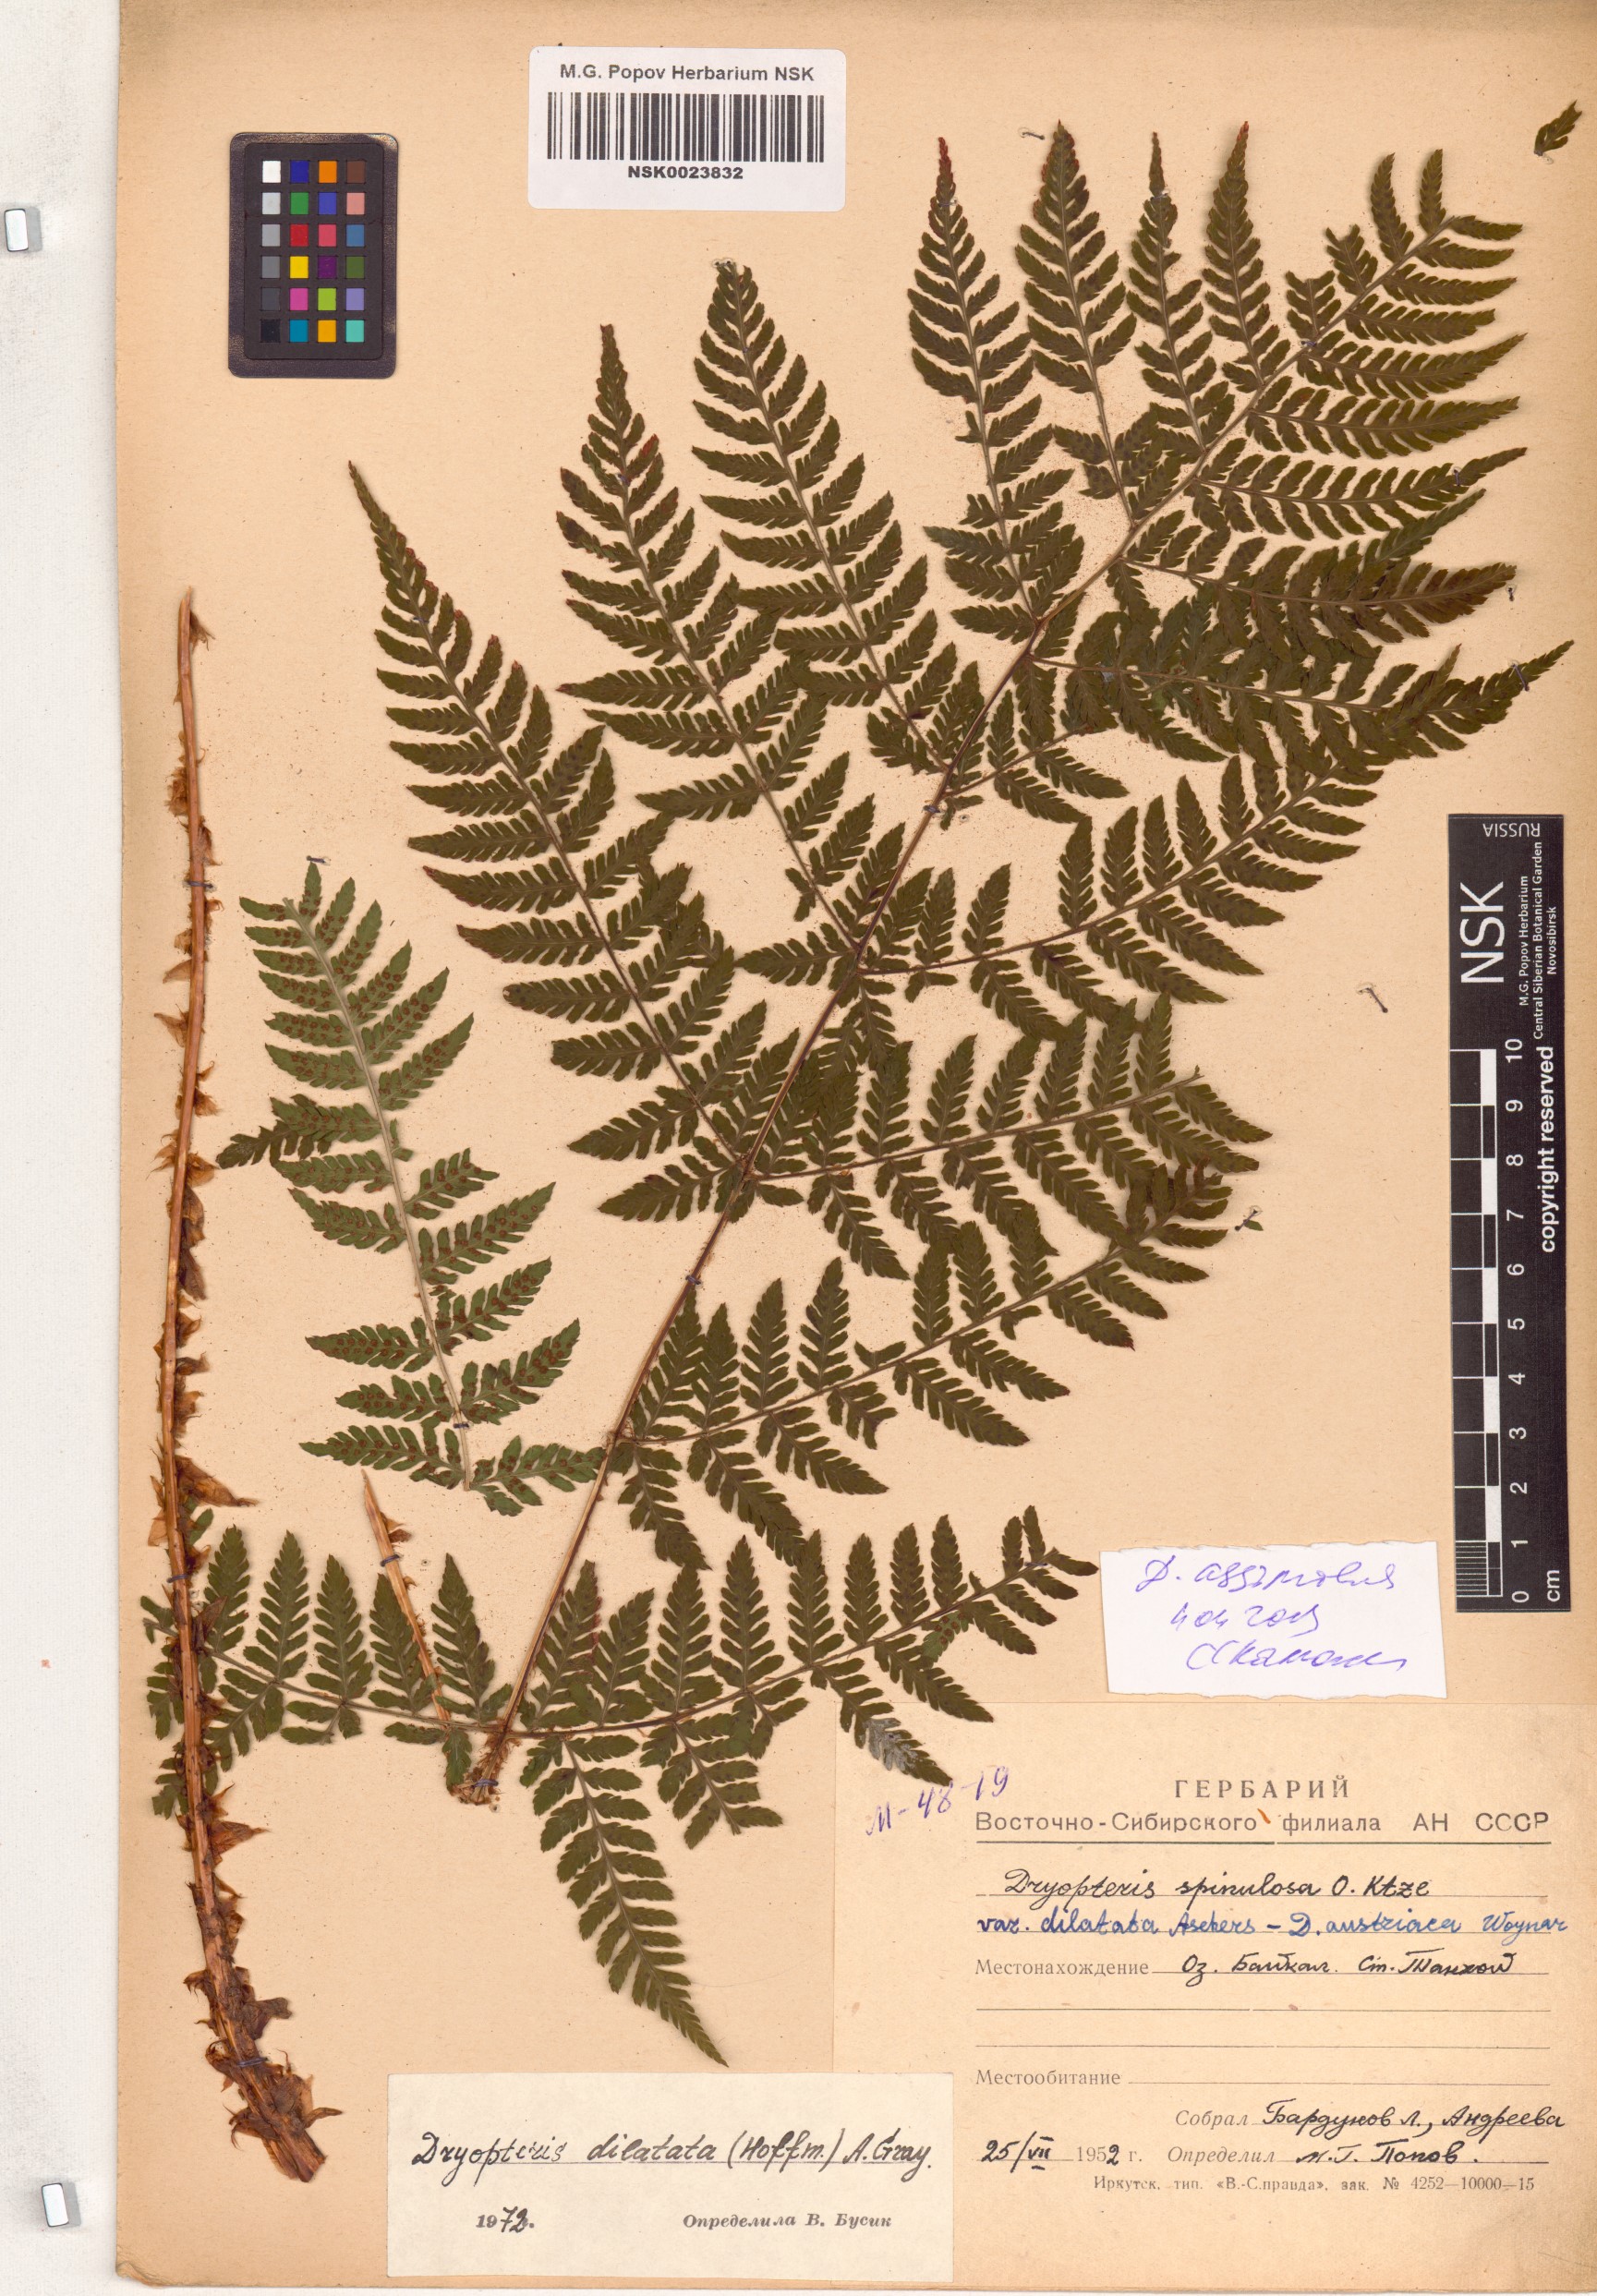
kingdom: Plantae
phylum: Tracheophyta
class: Polypodiopsida
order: Polypodiales
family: Dryopteridaceae
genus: Dryopteris
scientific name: Dryopteris expansa
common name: Northern buckler fern
